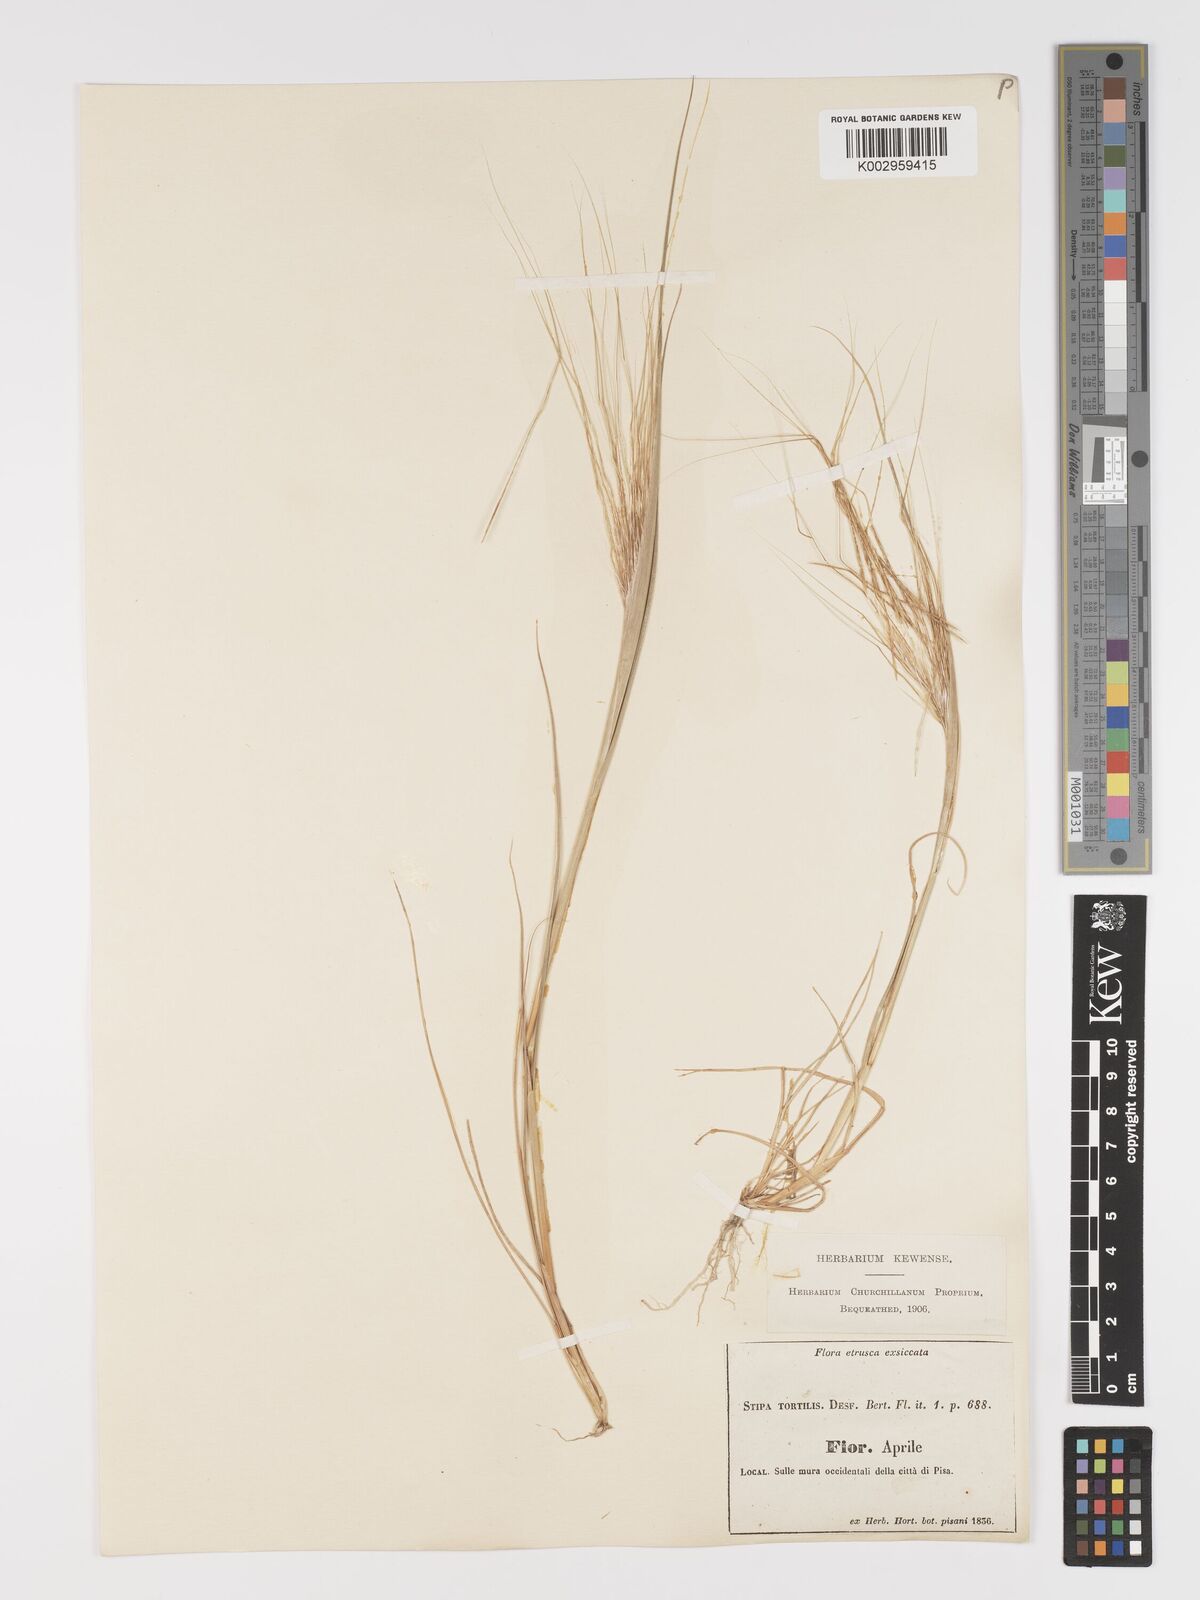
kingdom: Plantae
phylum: Tracheophyta
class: Liliopsida
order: Poales
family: Poaceae
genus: Stipa
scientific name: Stipa
